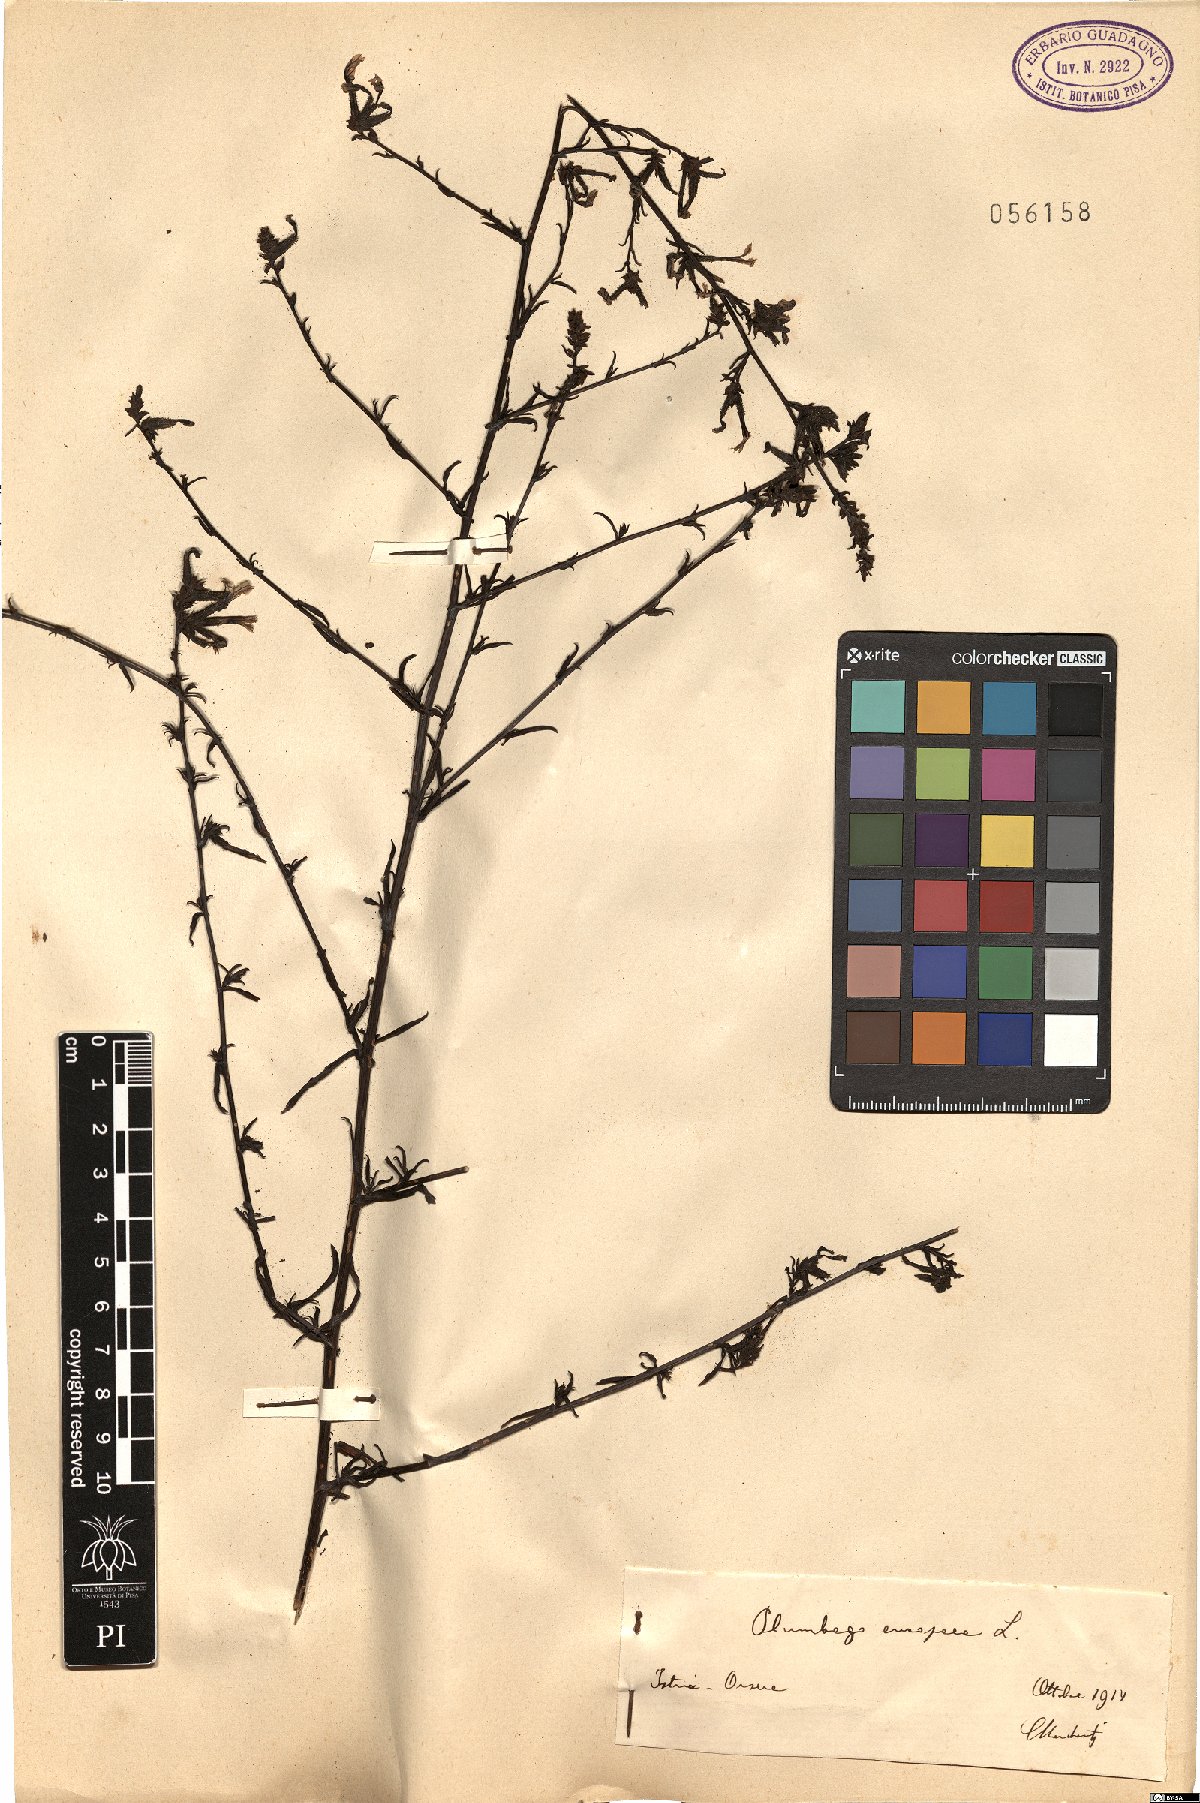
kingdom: Plantae
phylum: Tracheophyta
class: Magnoliopsida
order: Caryophyllales
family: Plumbaginaceae
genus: Plumbago
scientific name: Plumbago europaea
